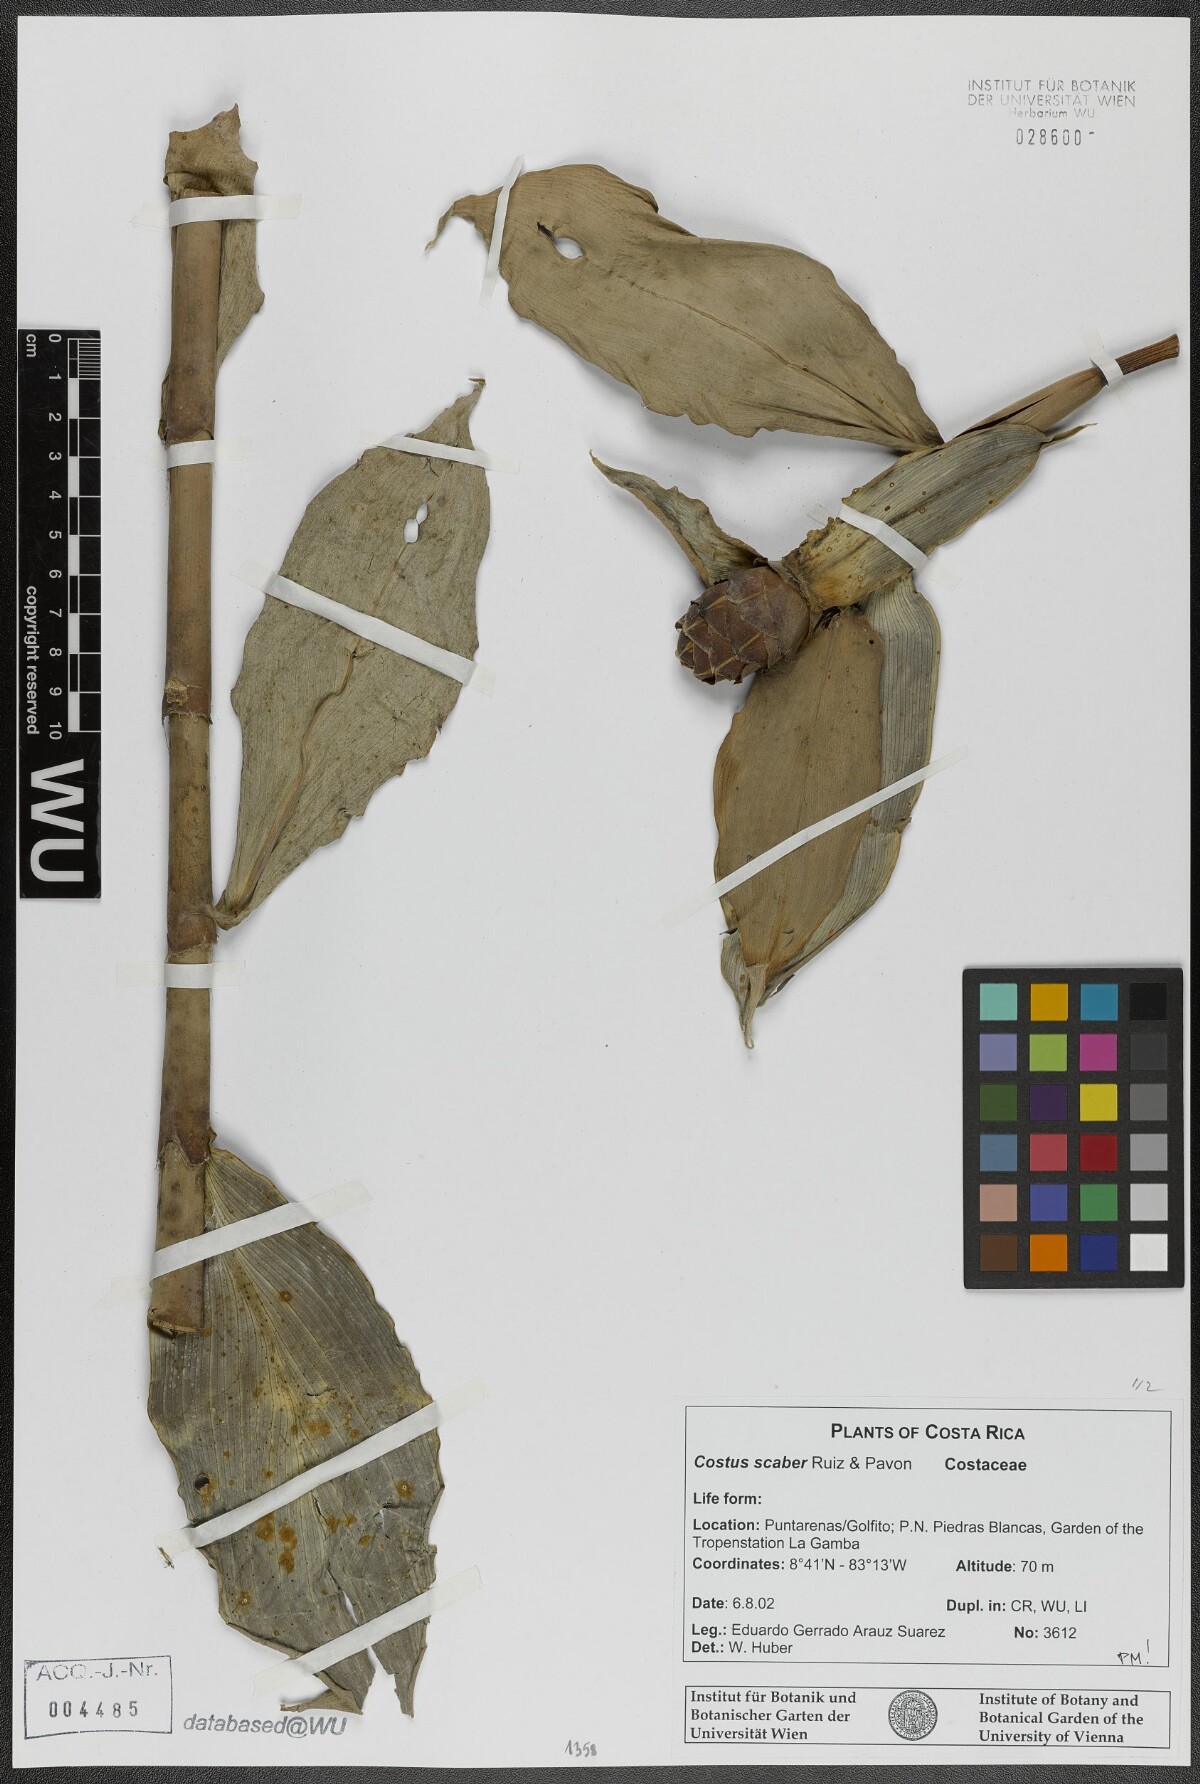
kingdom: Plantae
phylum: Tracheophyta
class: Liliopsida
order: Zingiberales
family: Costaceae
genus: Costus
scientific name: Costus scaber
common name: Spiral head ginger
